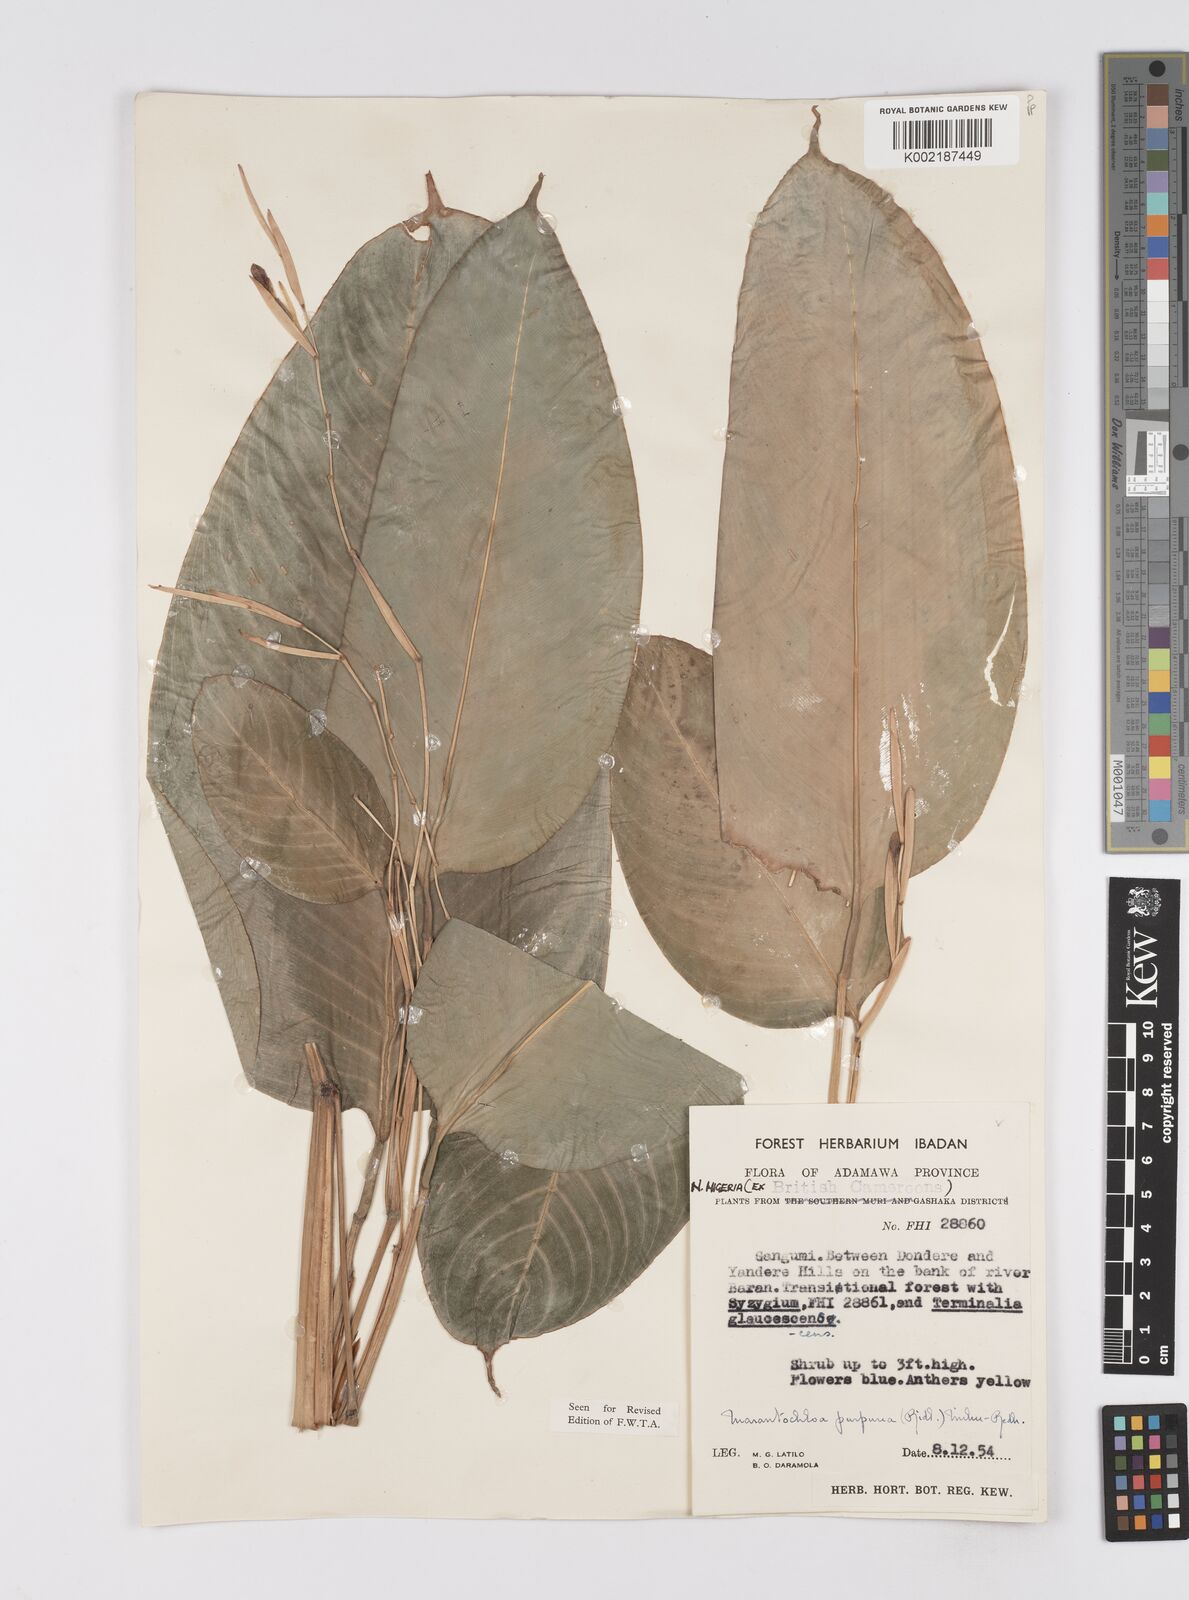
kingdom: Plantae
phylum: Tracheophyta
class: Liliopsida
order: Zingiberales
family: Marantaceae
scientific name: Marantaceae
